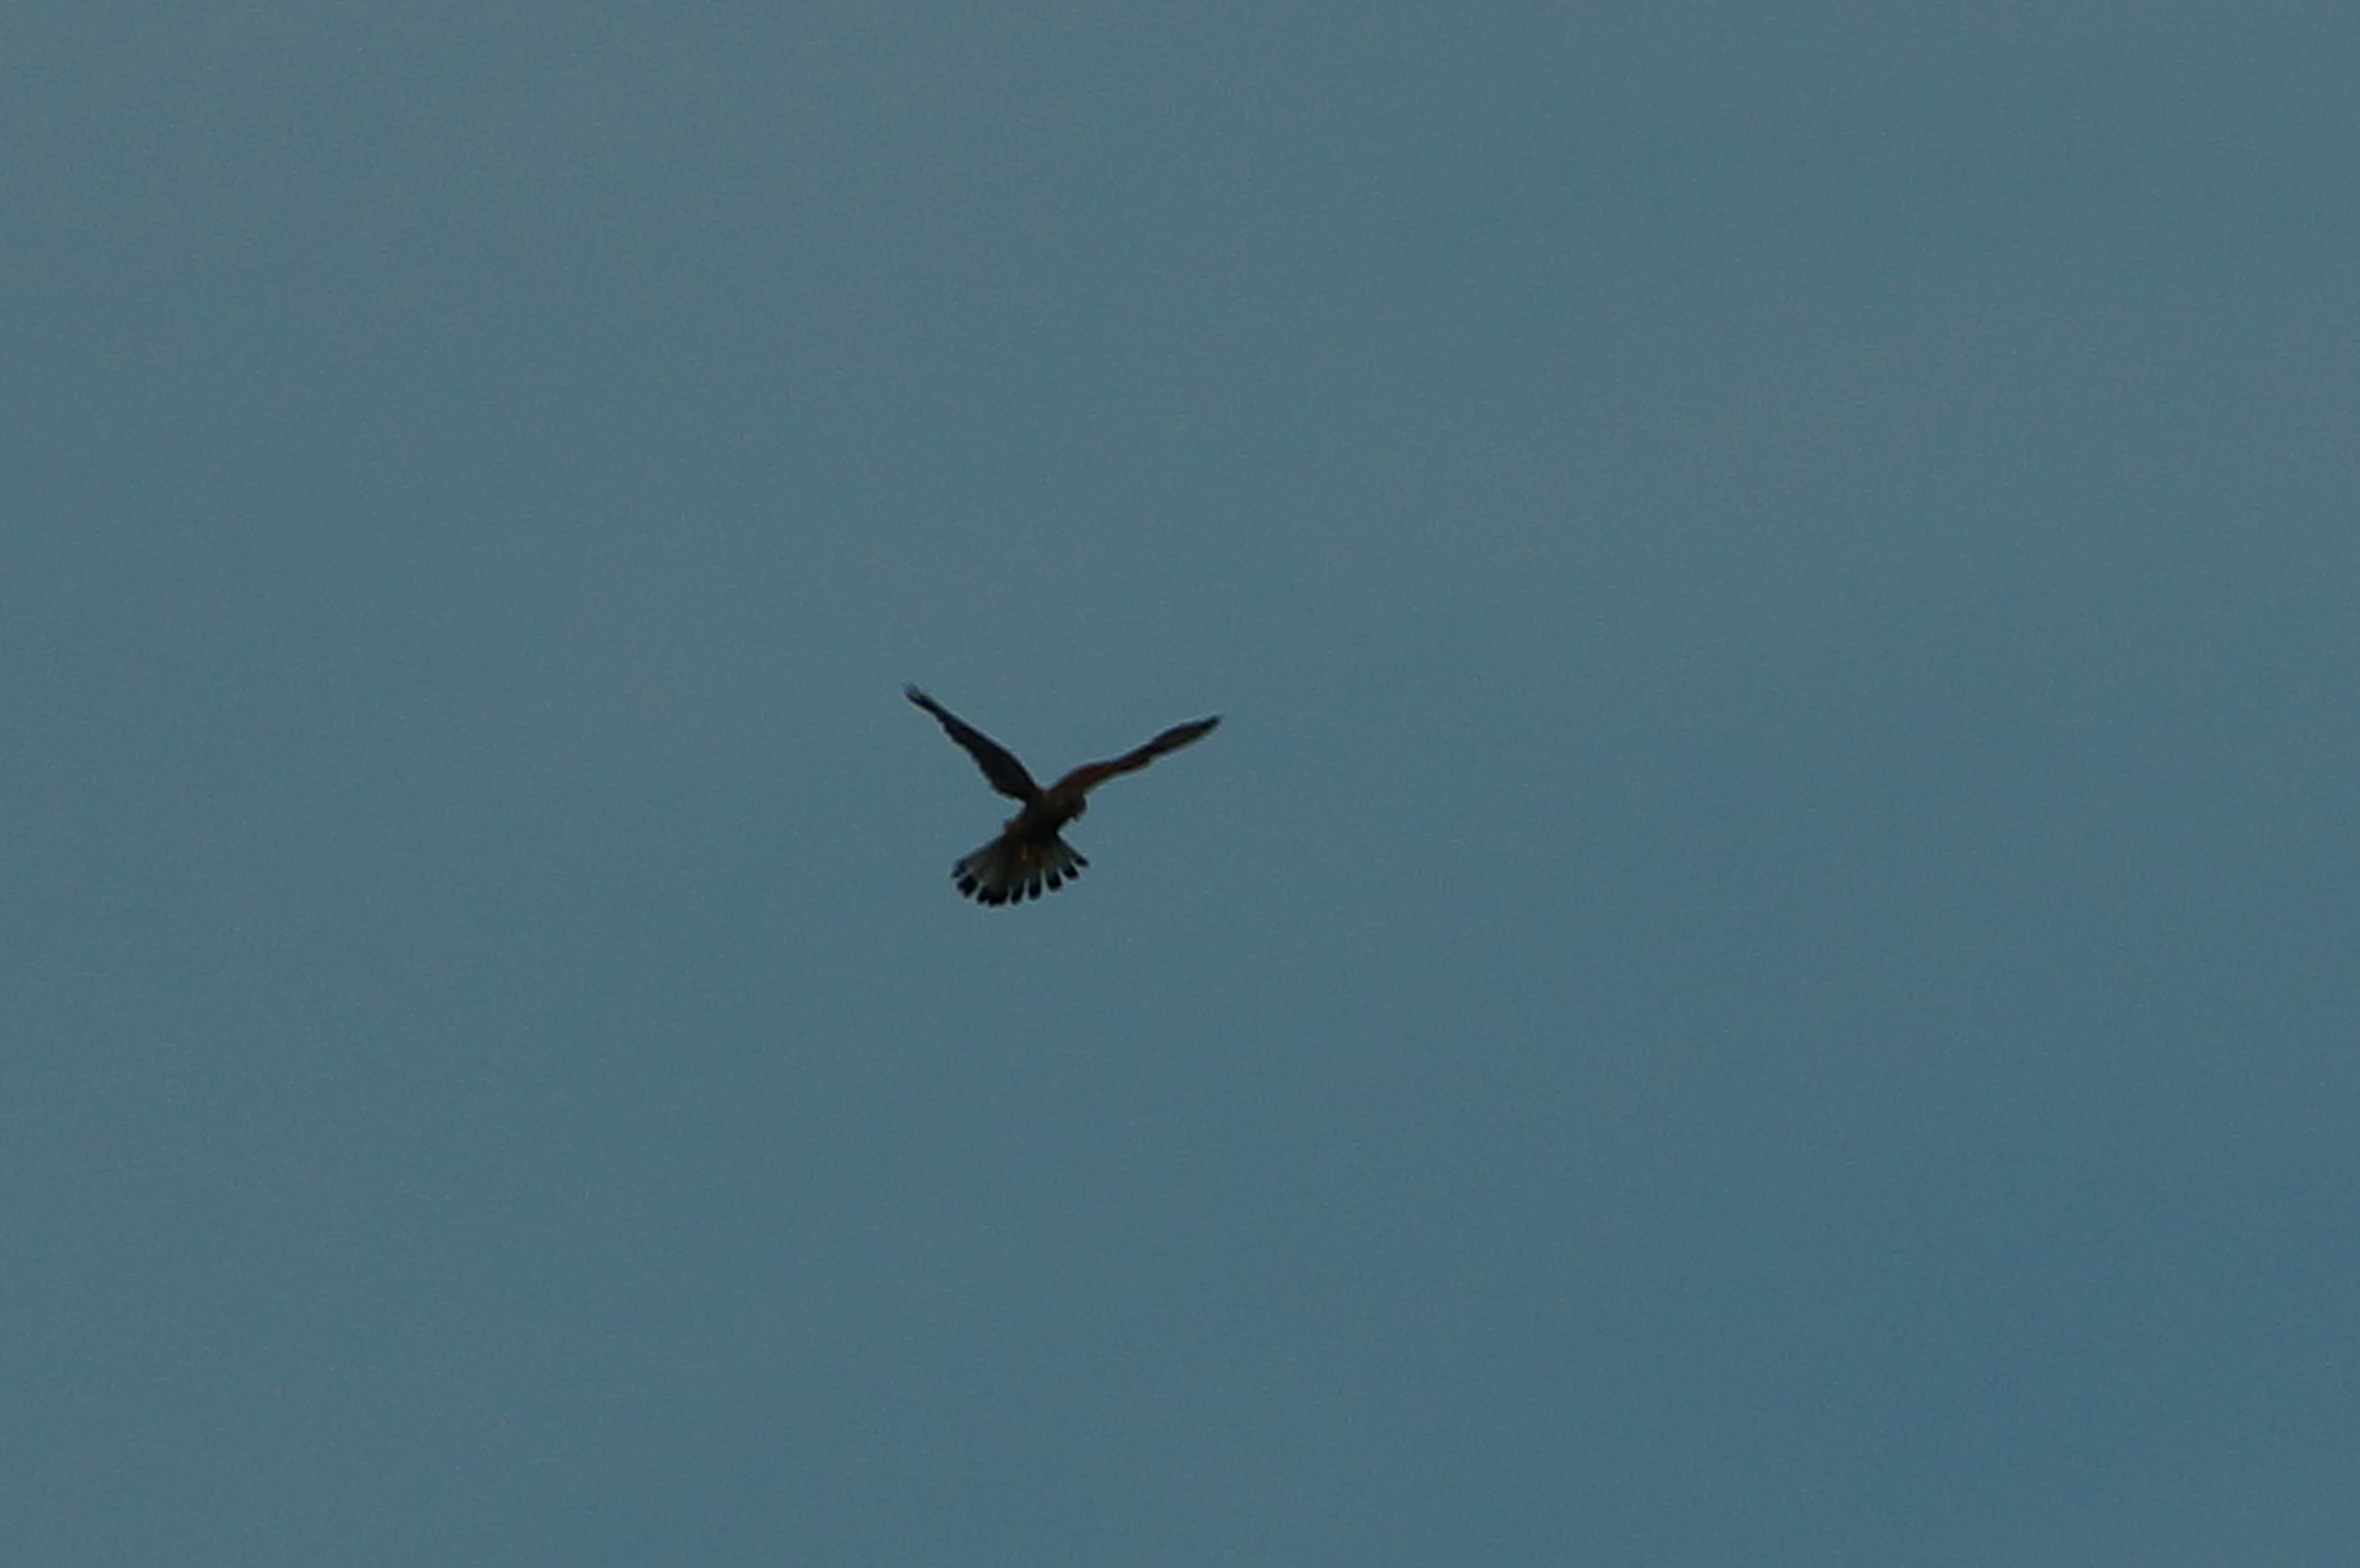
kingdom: Animalia
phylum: Chordata
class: Aves
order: Falconiformes
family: Falconidae
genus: Falco
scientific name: Falco tinnunculus
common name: Tårnfalk
